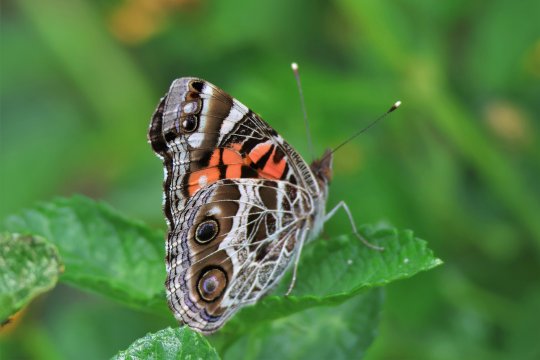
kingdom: Animalia
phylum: Arthropoda
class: Insecta
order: Lepidoptera
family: Nymphalidae
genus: Vanessa
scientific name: Vanessa virginiensis
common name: American Lady
